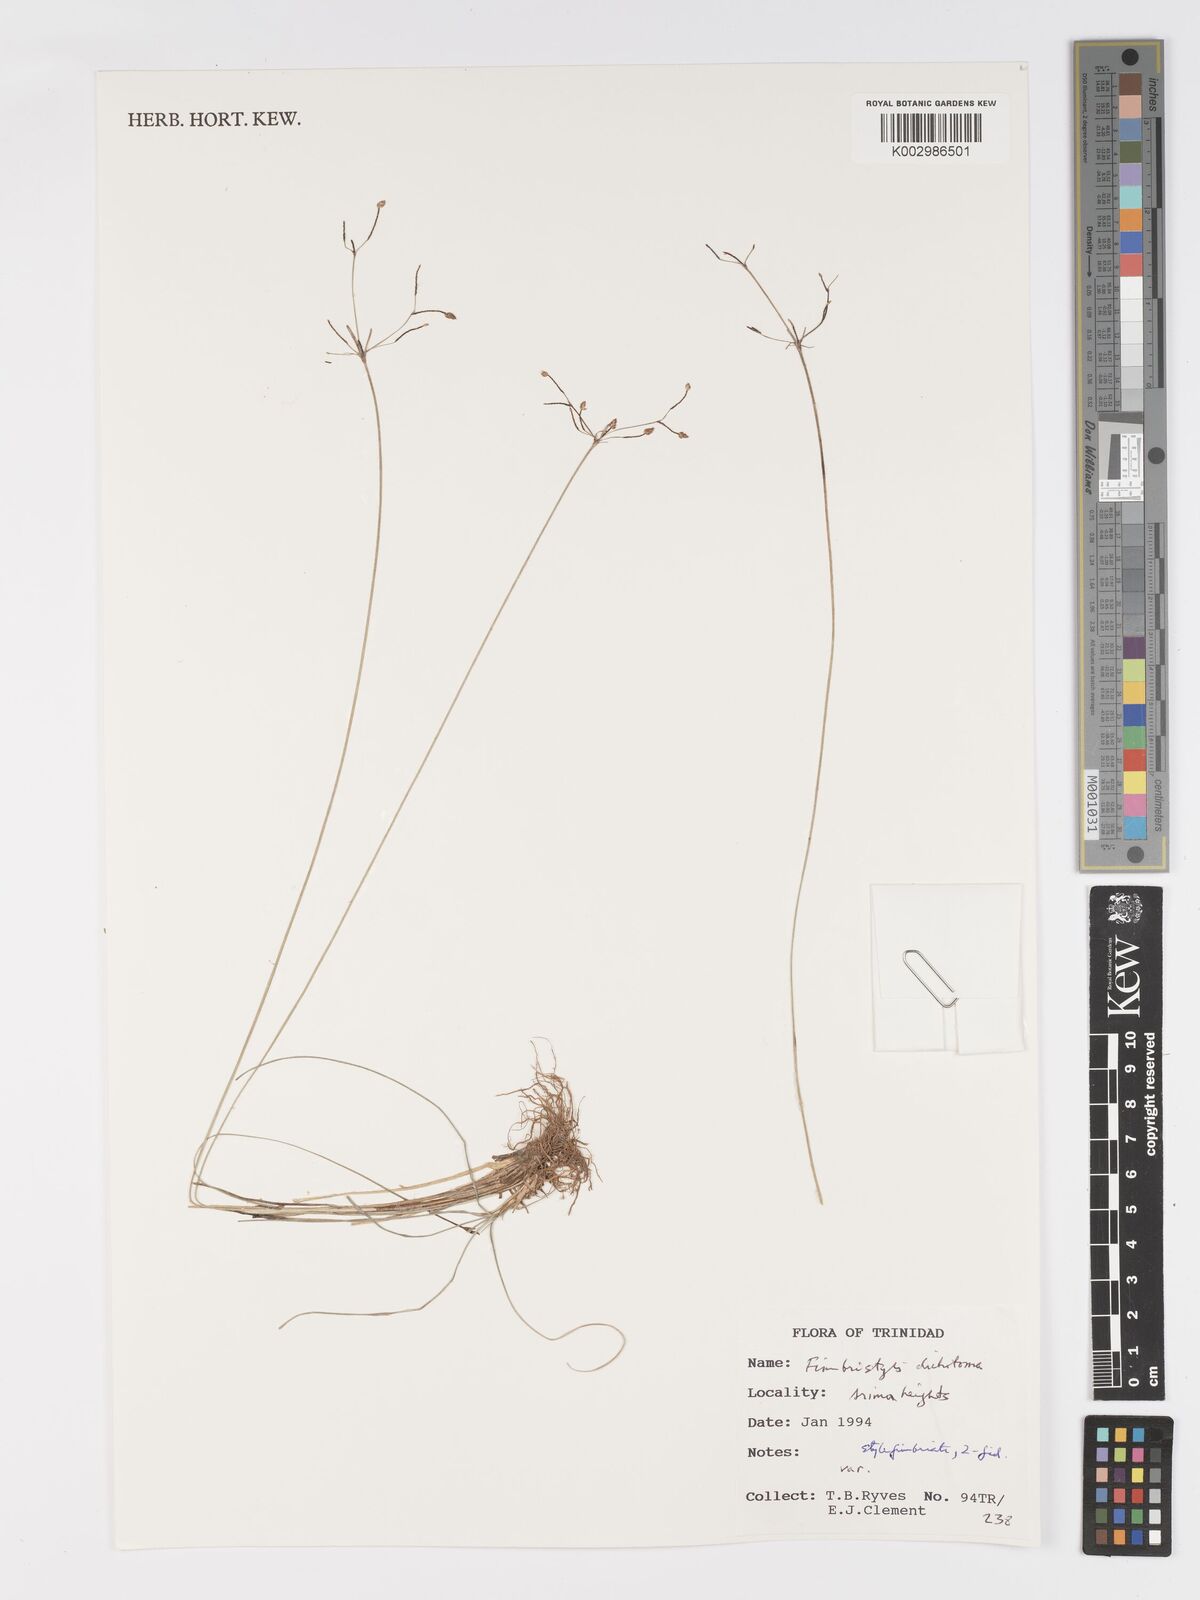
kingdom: Plantae
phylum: Tracheophyta
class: Liliopsida
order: Poales
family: Cyperaceae
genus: Fimbristylis
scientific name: Fimbristylis dichotoma
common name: Forked fimbry
